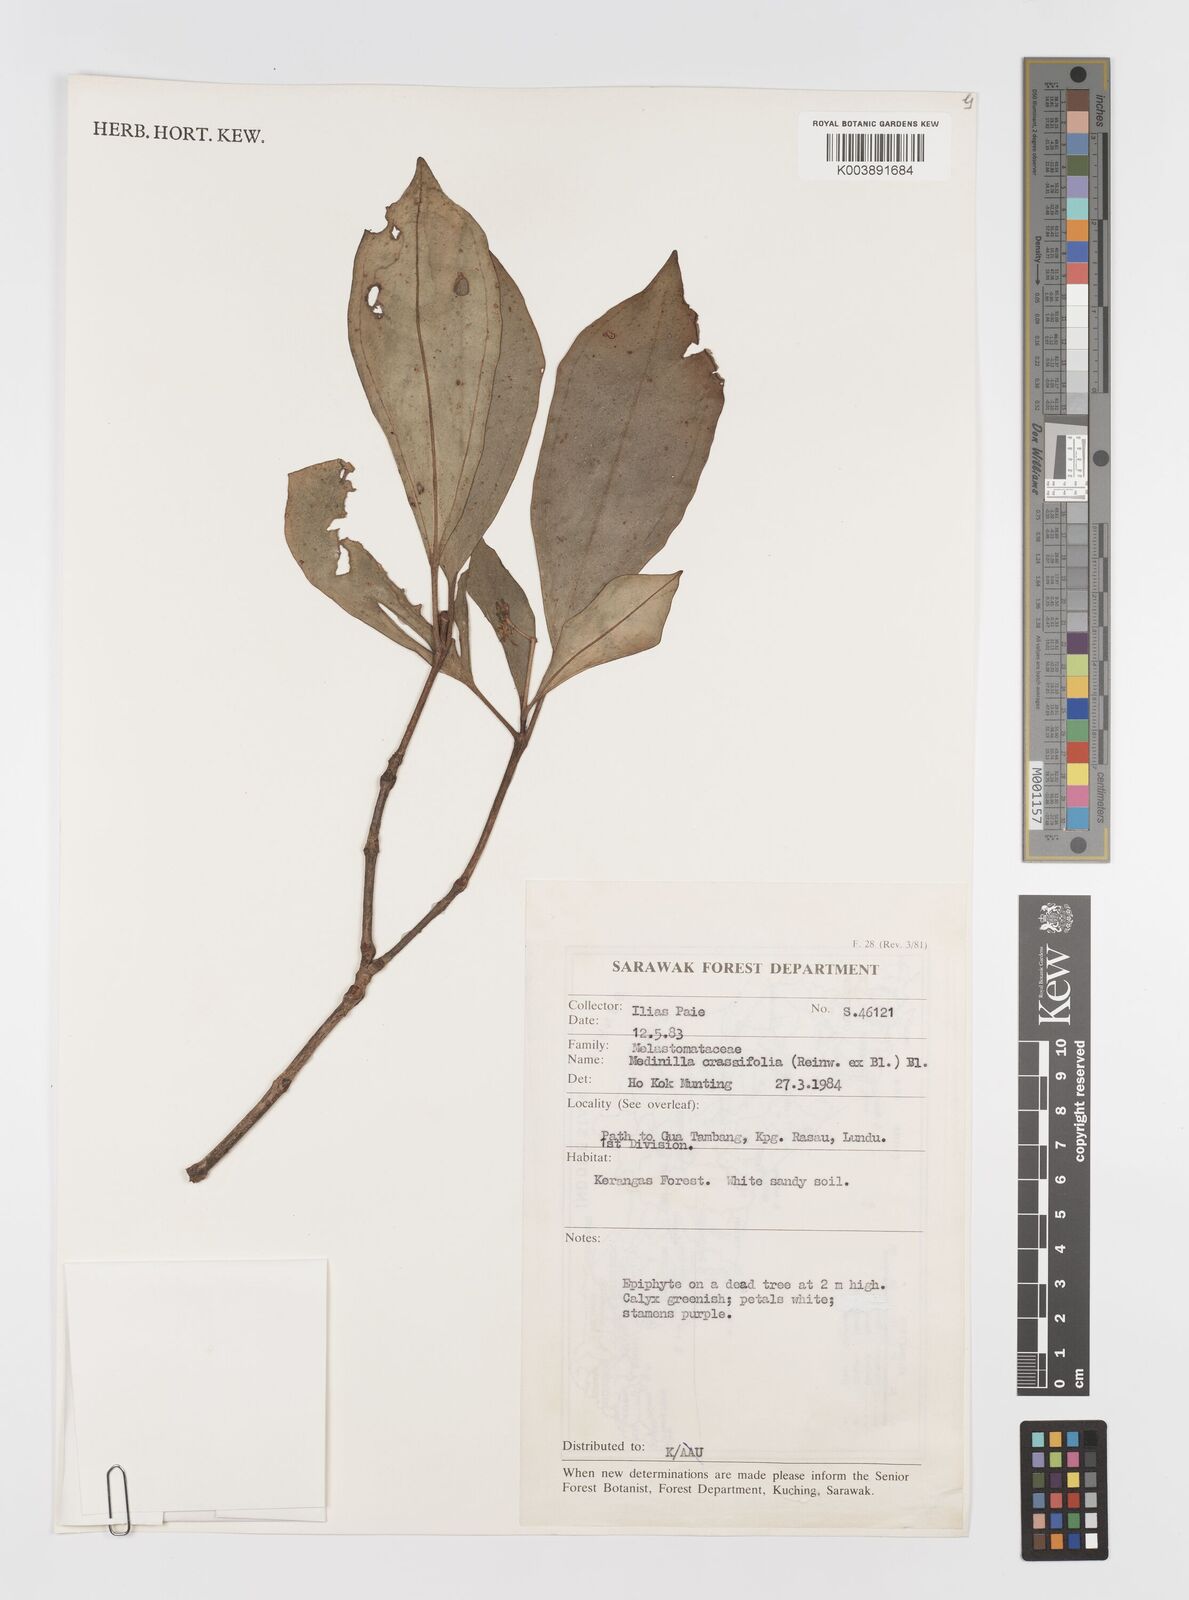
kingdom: Plantae
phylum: Tracheophyta
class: Magnoliopsida
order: Myrtales
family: Melastomataceae
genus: Medinilla
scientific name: Medinilla crassifolia
